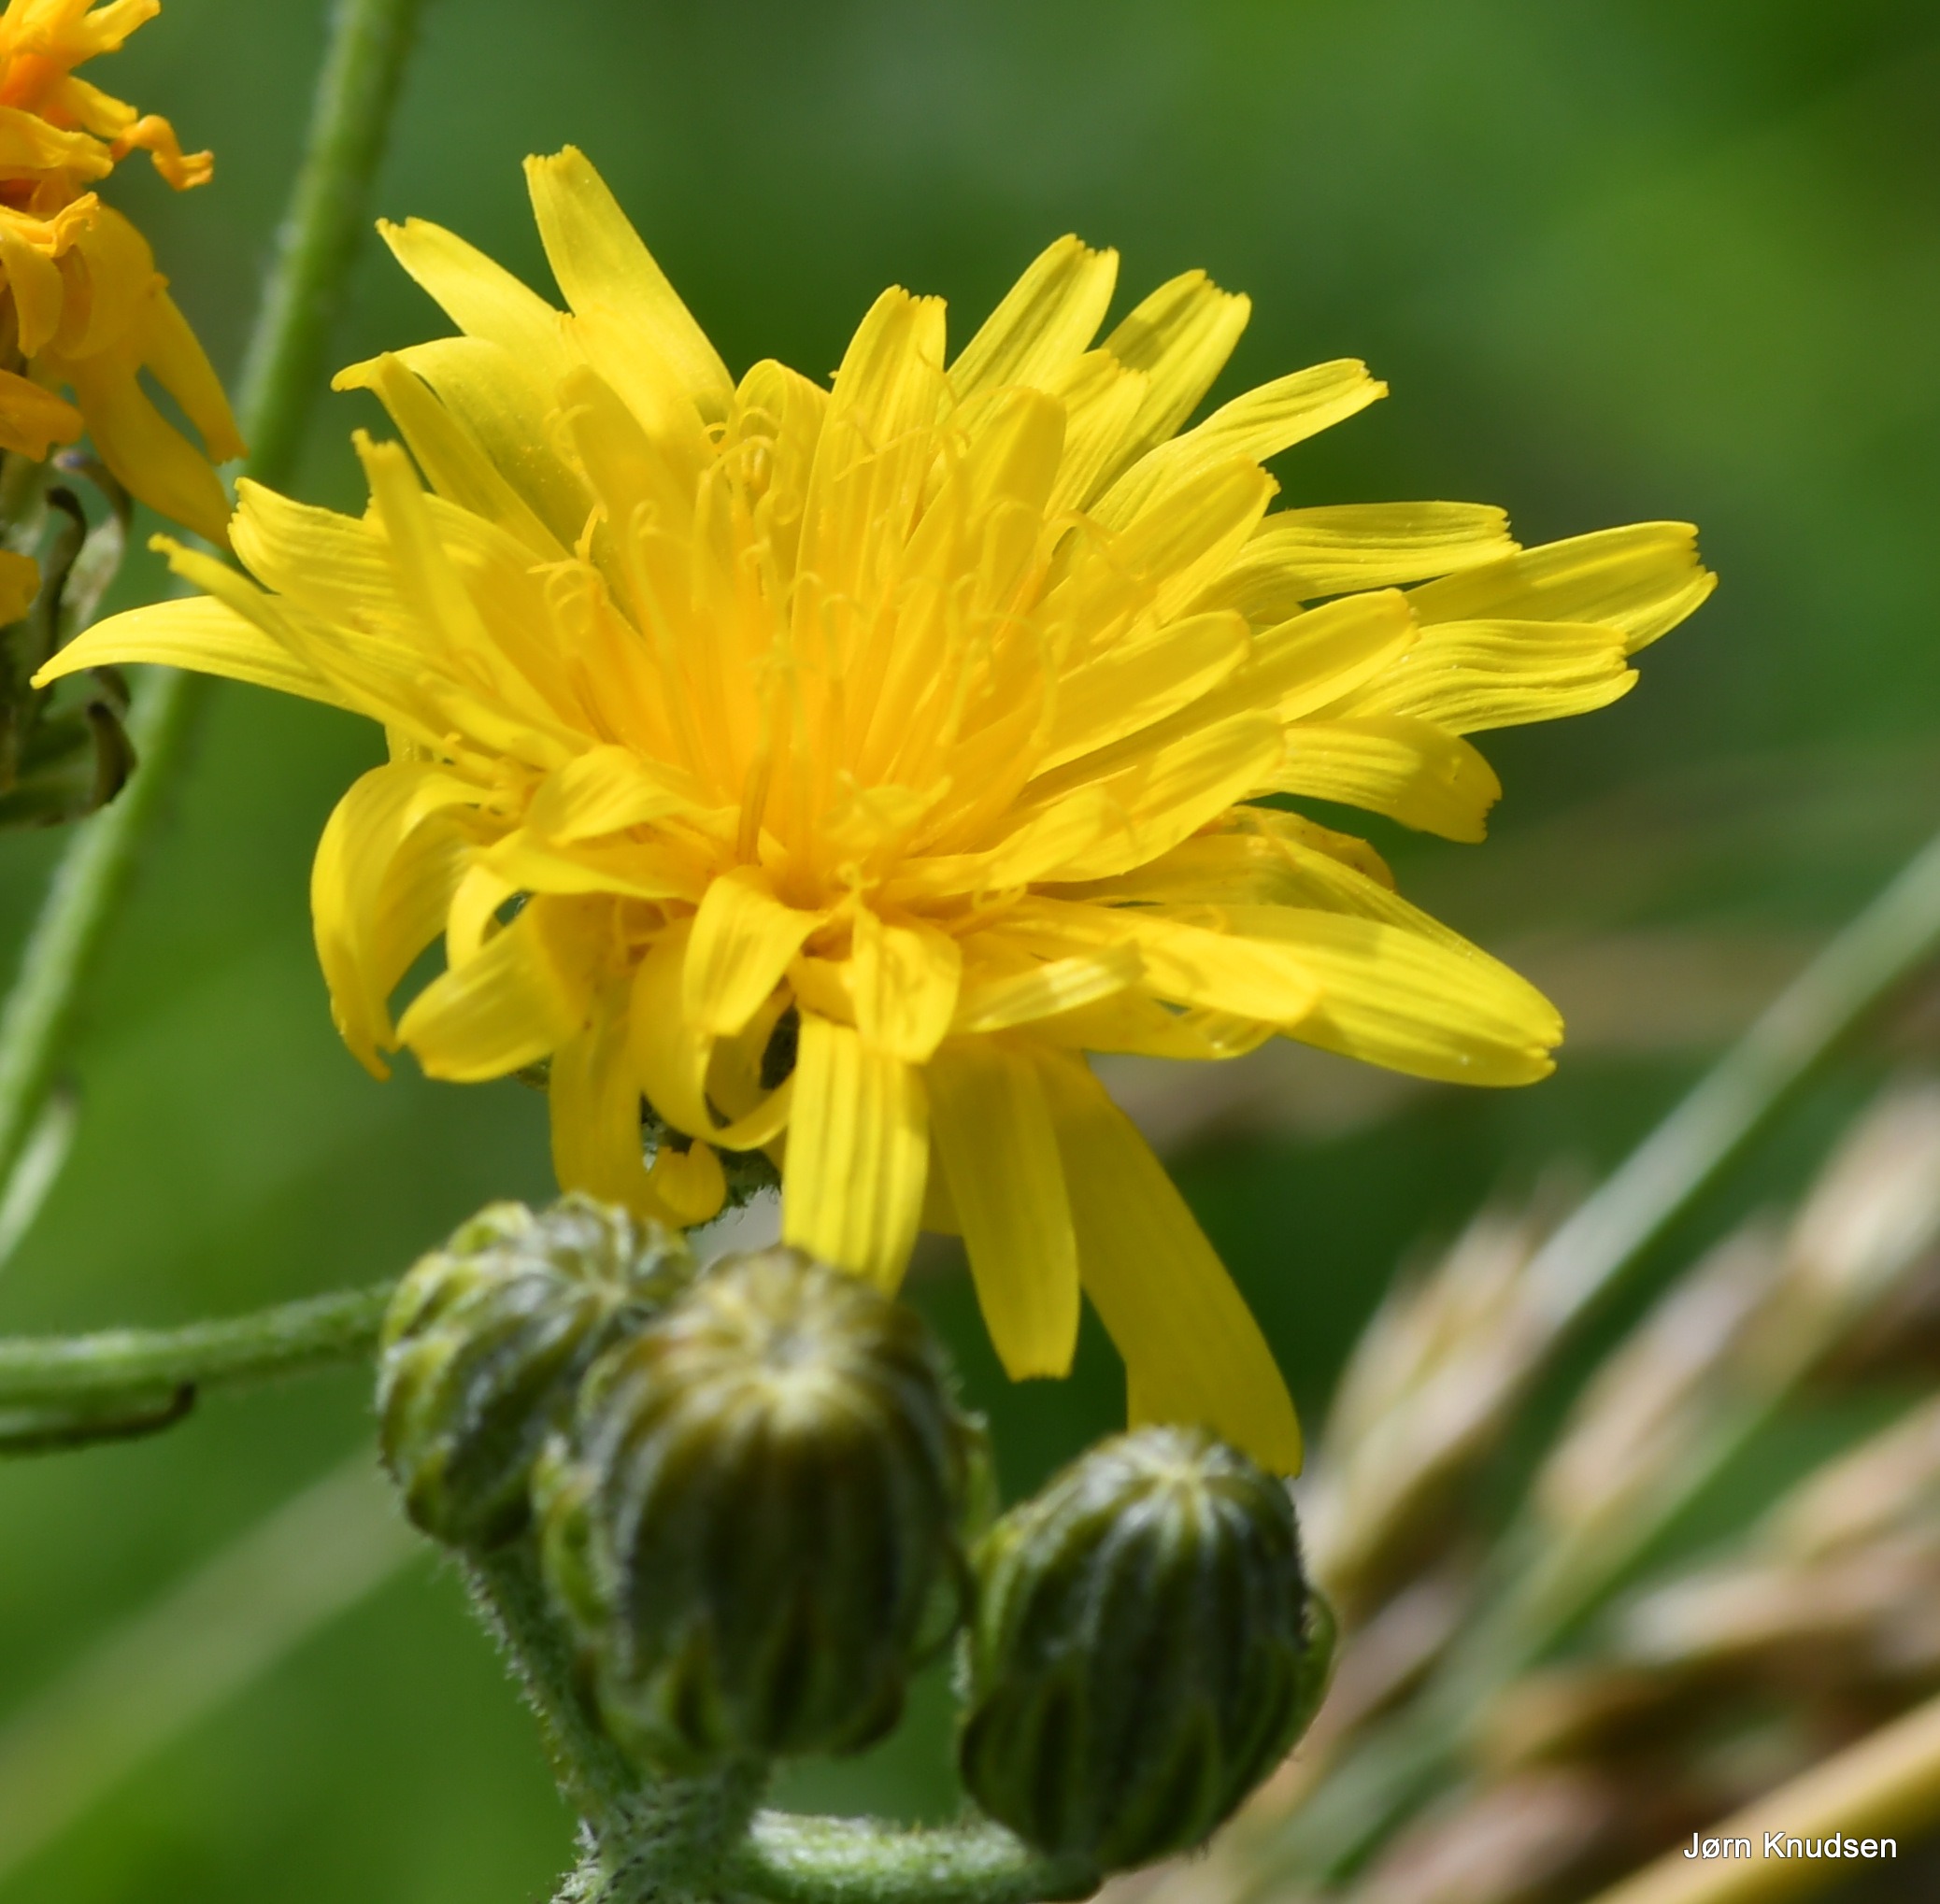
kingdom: Plantae
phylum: Tracheophyta
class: Magnoliopsida
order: Asterales
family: Asteraceae
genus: Crepis
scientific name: Crepis biennis
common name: Toårig høgeskæg
